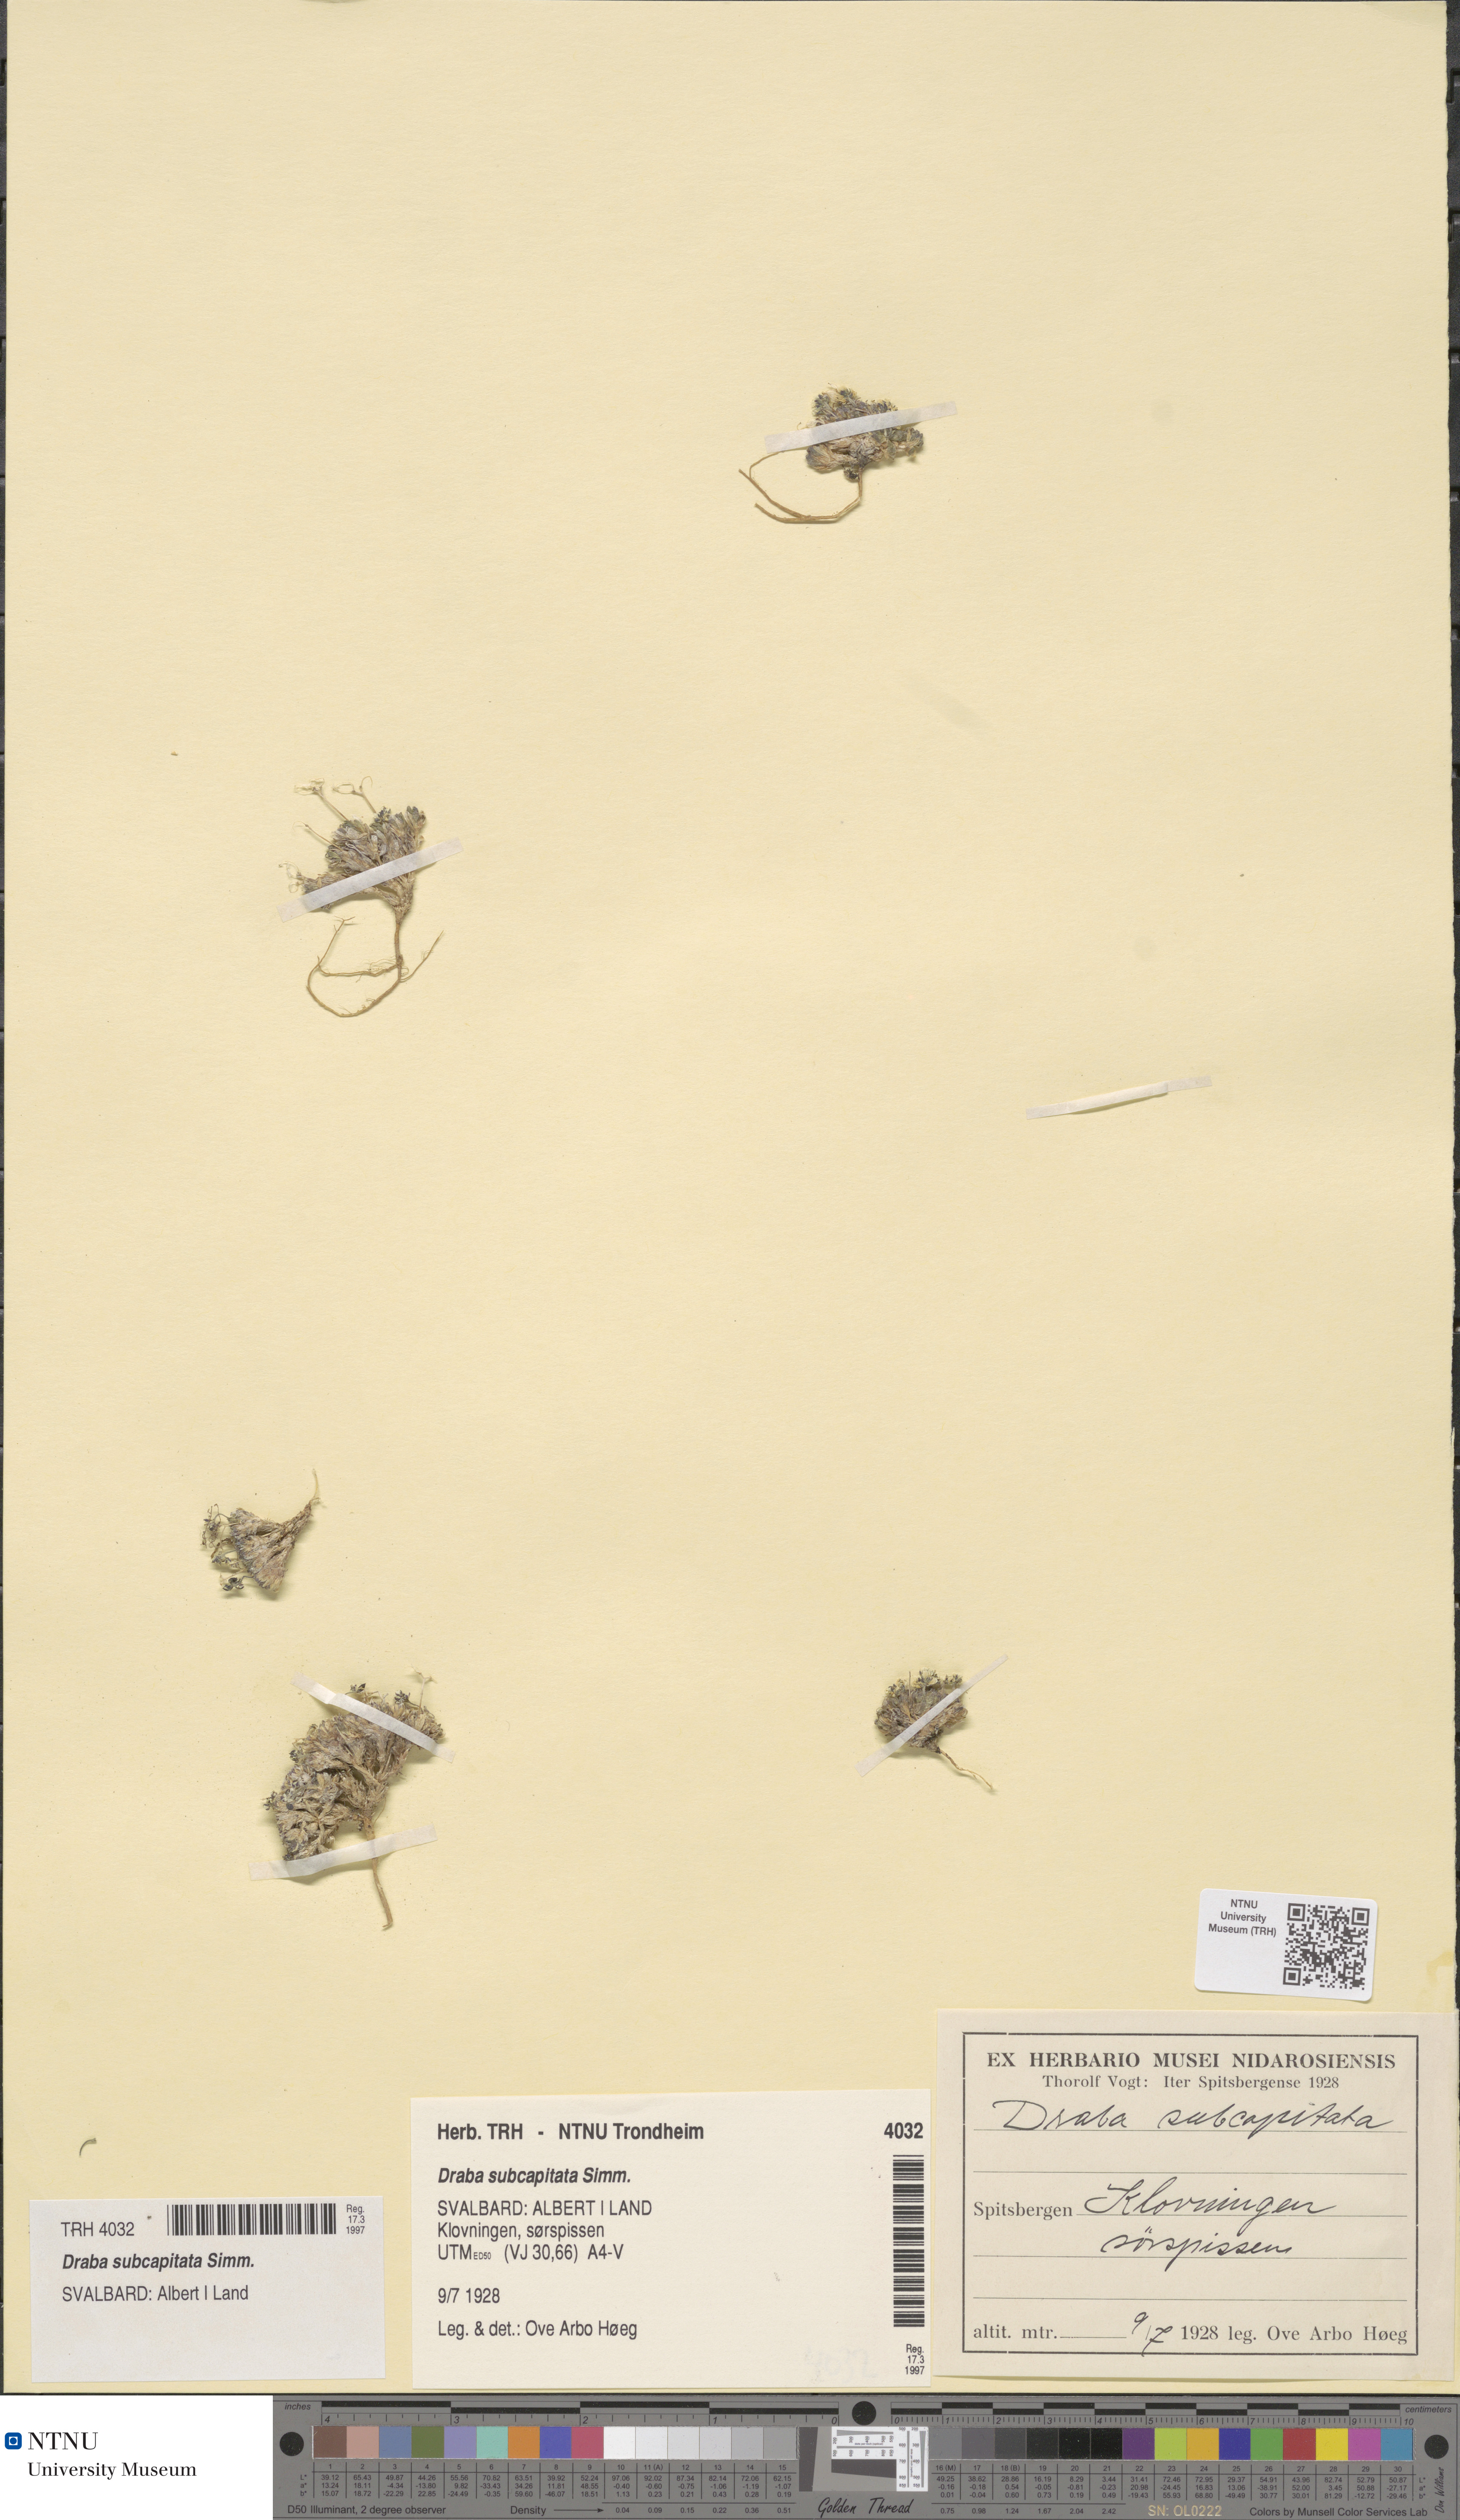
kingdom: Plantae
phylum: Tracheophyta
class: Magnoliopsida
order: Brassicales
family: Brassicaceae
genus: Draba
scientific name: Draba subcapitata
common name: Ellesmere island draba
